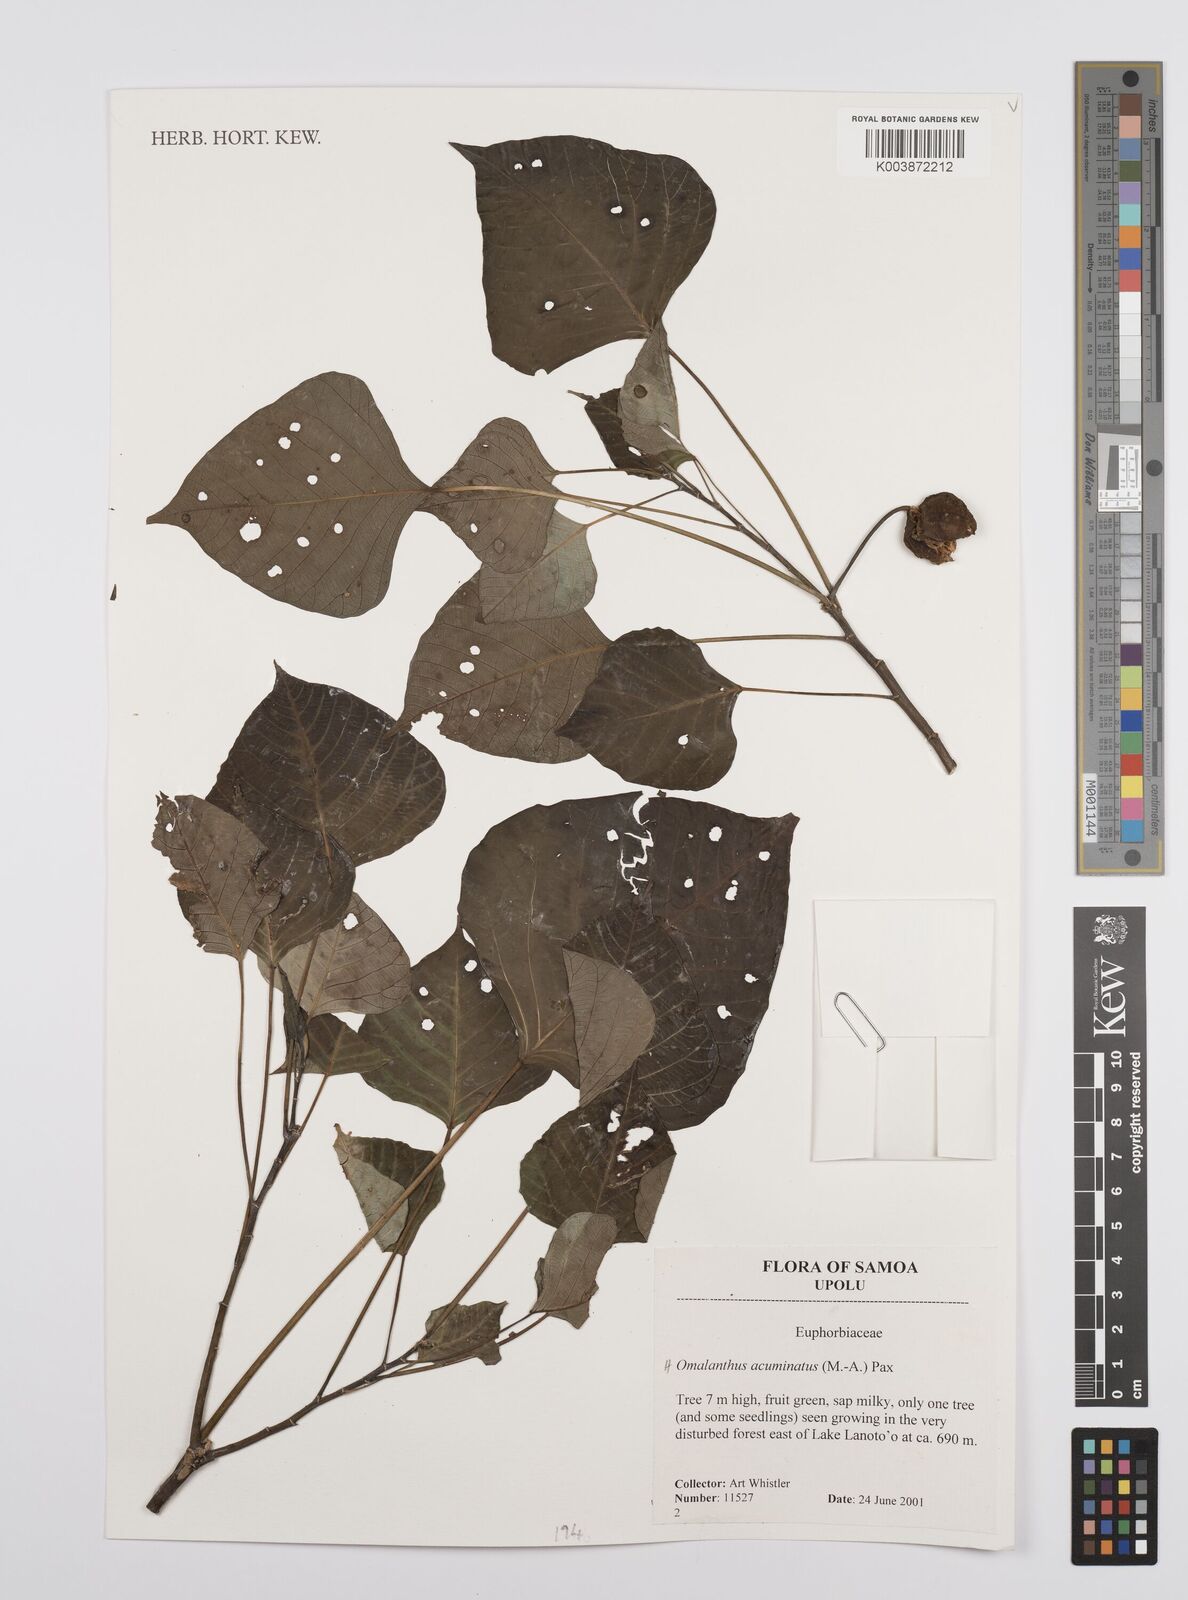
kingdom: Plantae
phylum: Tracheophyta
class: Magnoliopsida
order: Malpighiales
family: Euphorbiaceae
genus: Homalanthus
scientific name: Homalanthus acuminatus
